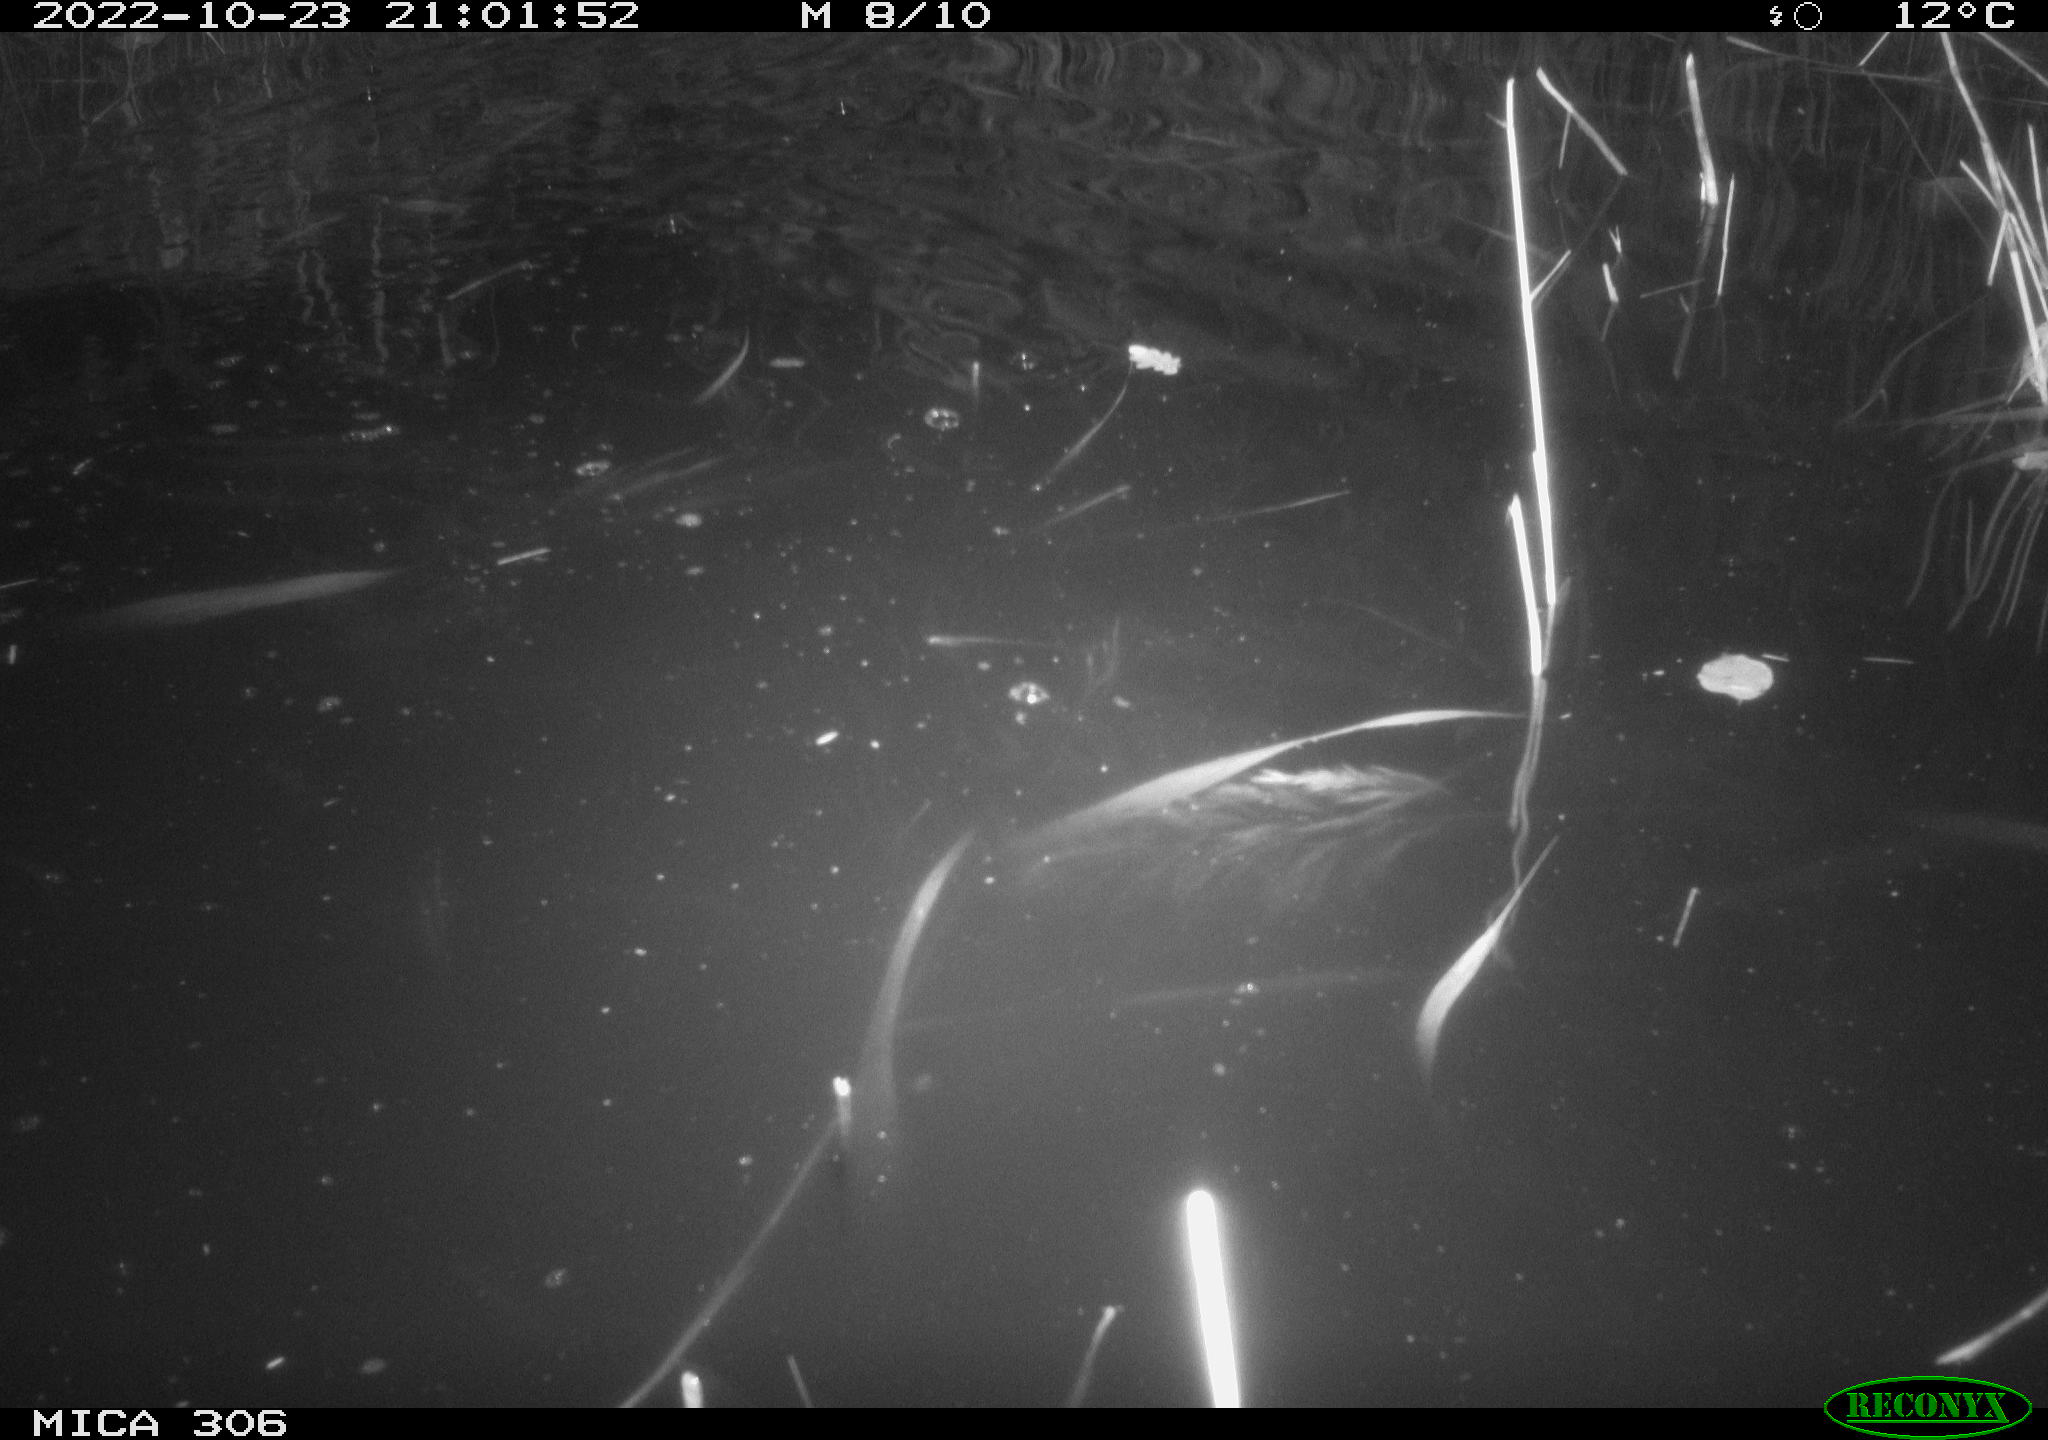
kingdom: Animalia
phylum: Chordata
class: Mammalia
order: Rodentia
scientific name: Rodentia
